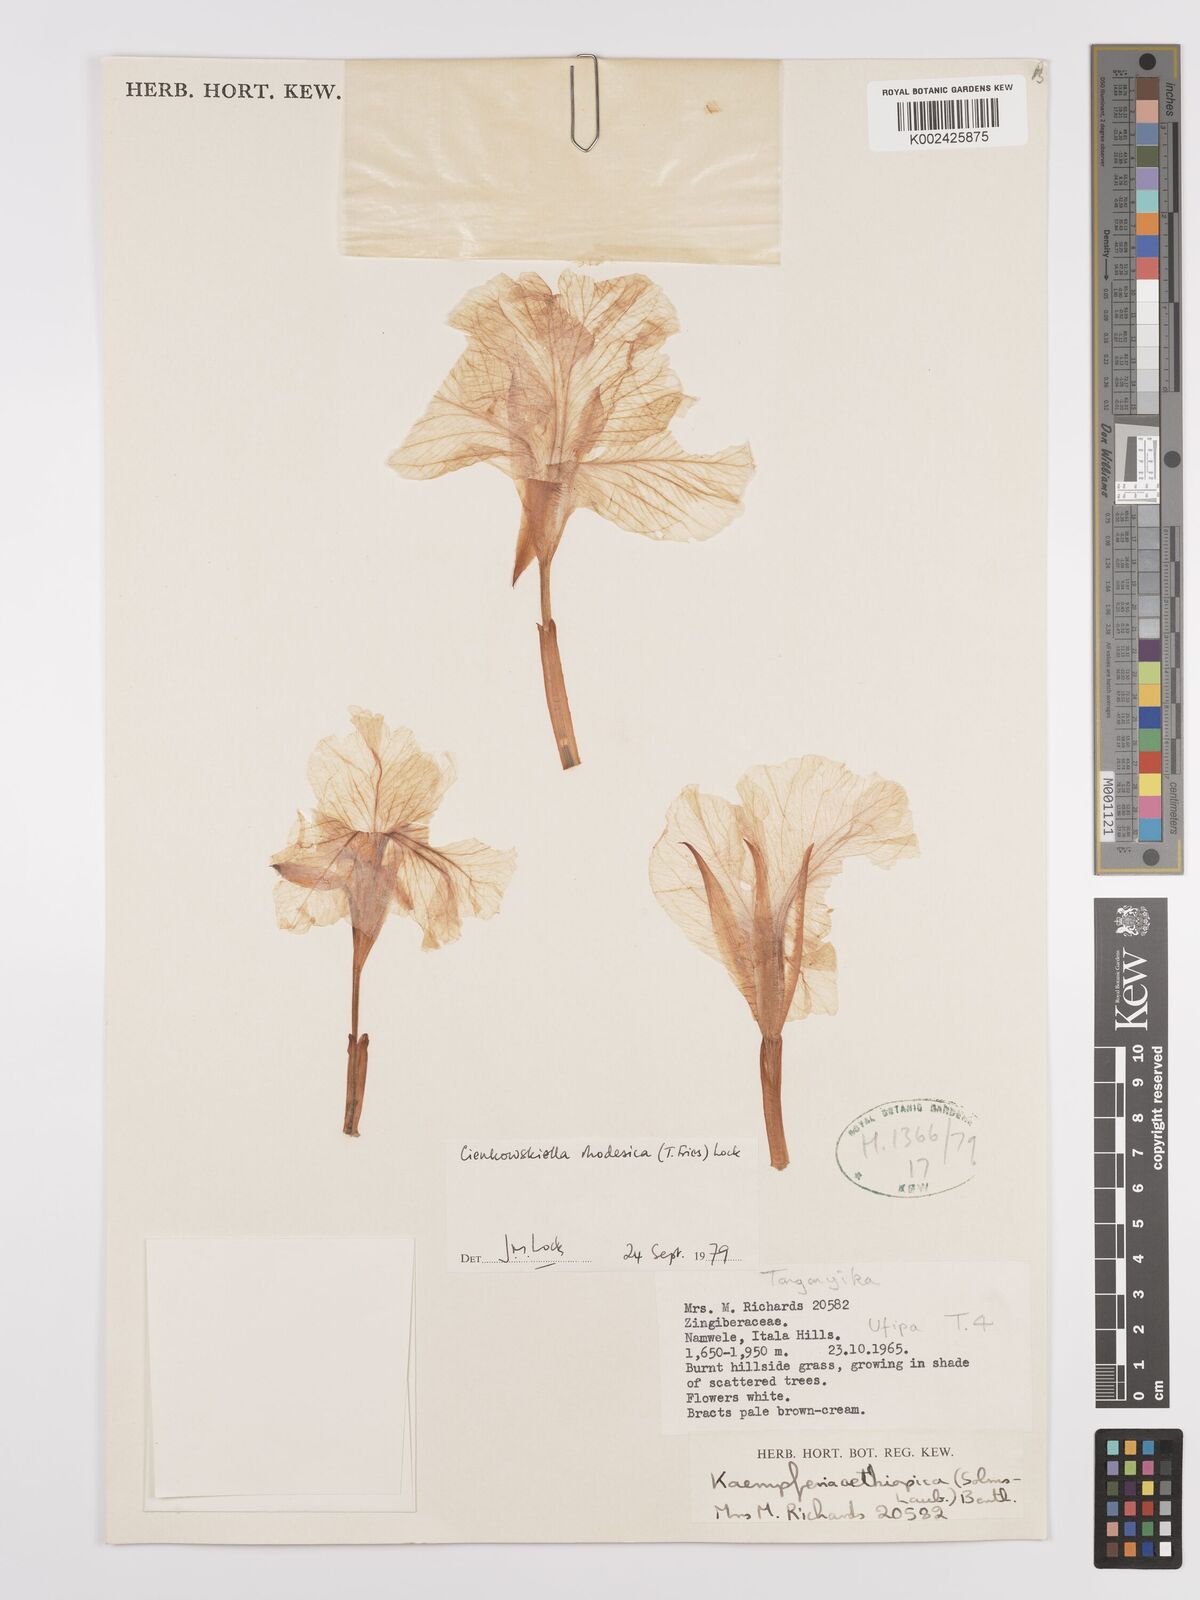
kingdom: Plantae
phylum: Tracheophyta
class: Liliopsida
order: Zingiberales
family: Zingiberaceae
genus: Siphonochilus
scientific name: Siphonochilus rhodesicus
